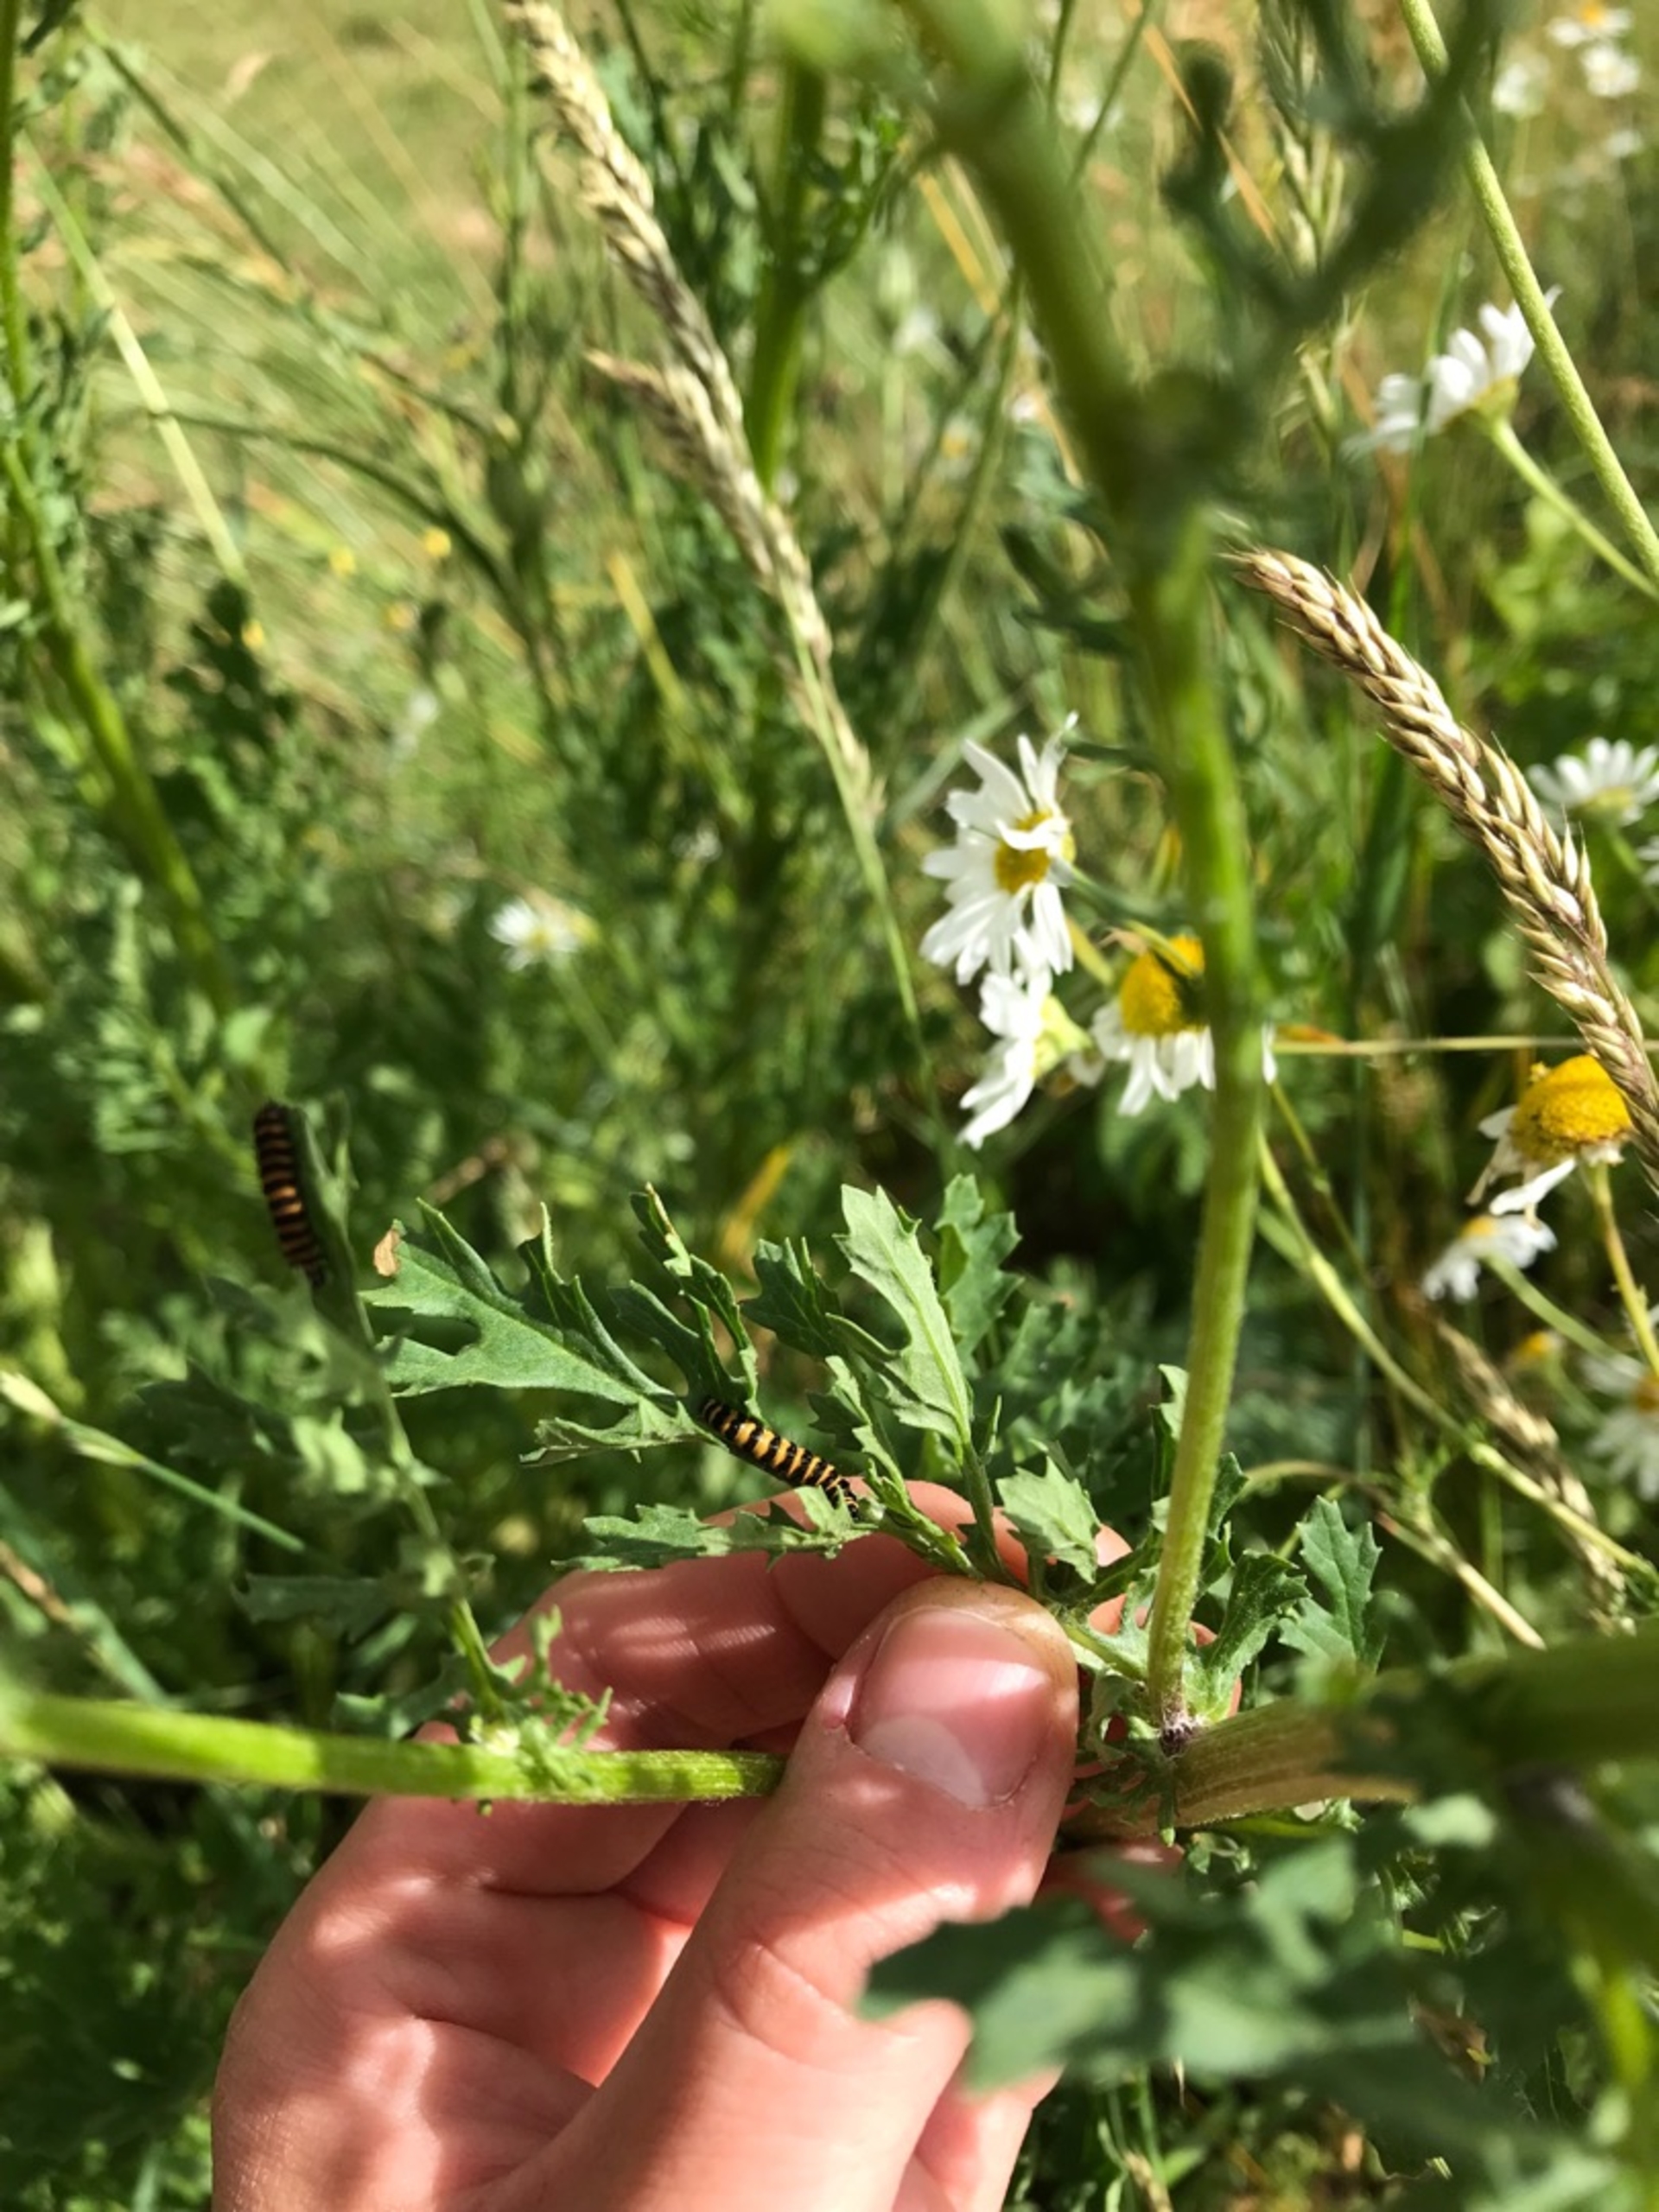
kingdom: Animalia
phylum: Arthropoda
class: Insecta
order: Lepidoptera
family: Erebidae
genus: Tyria
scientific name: Tyria jacobaeae
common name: Blodplet
